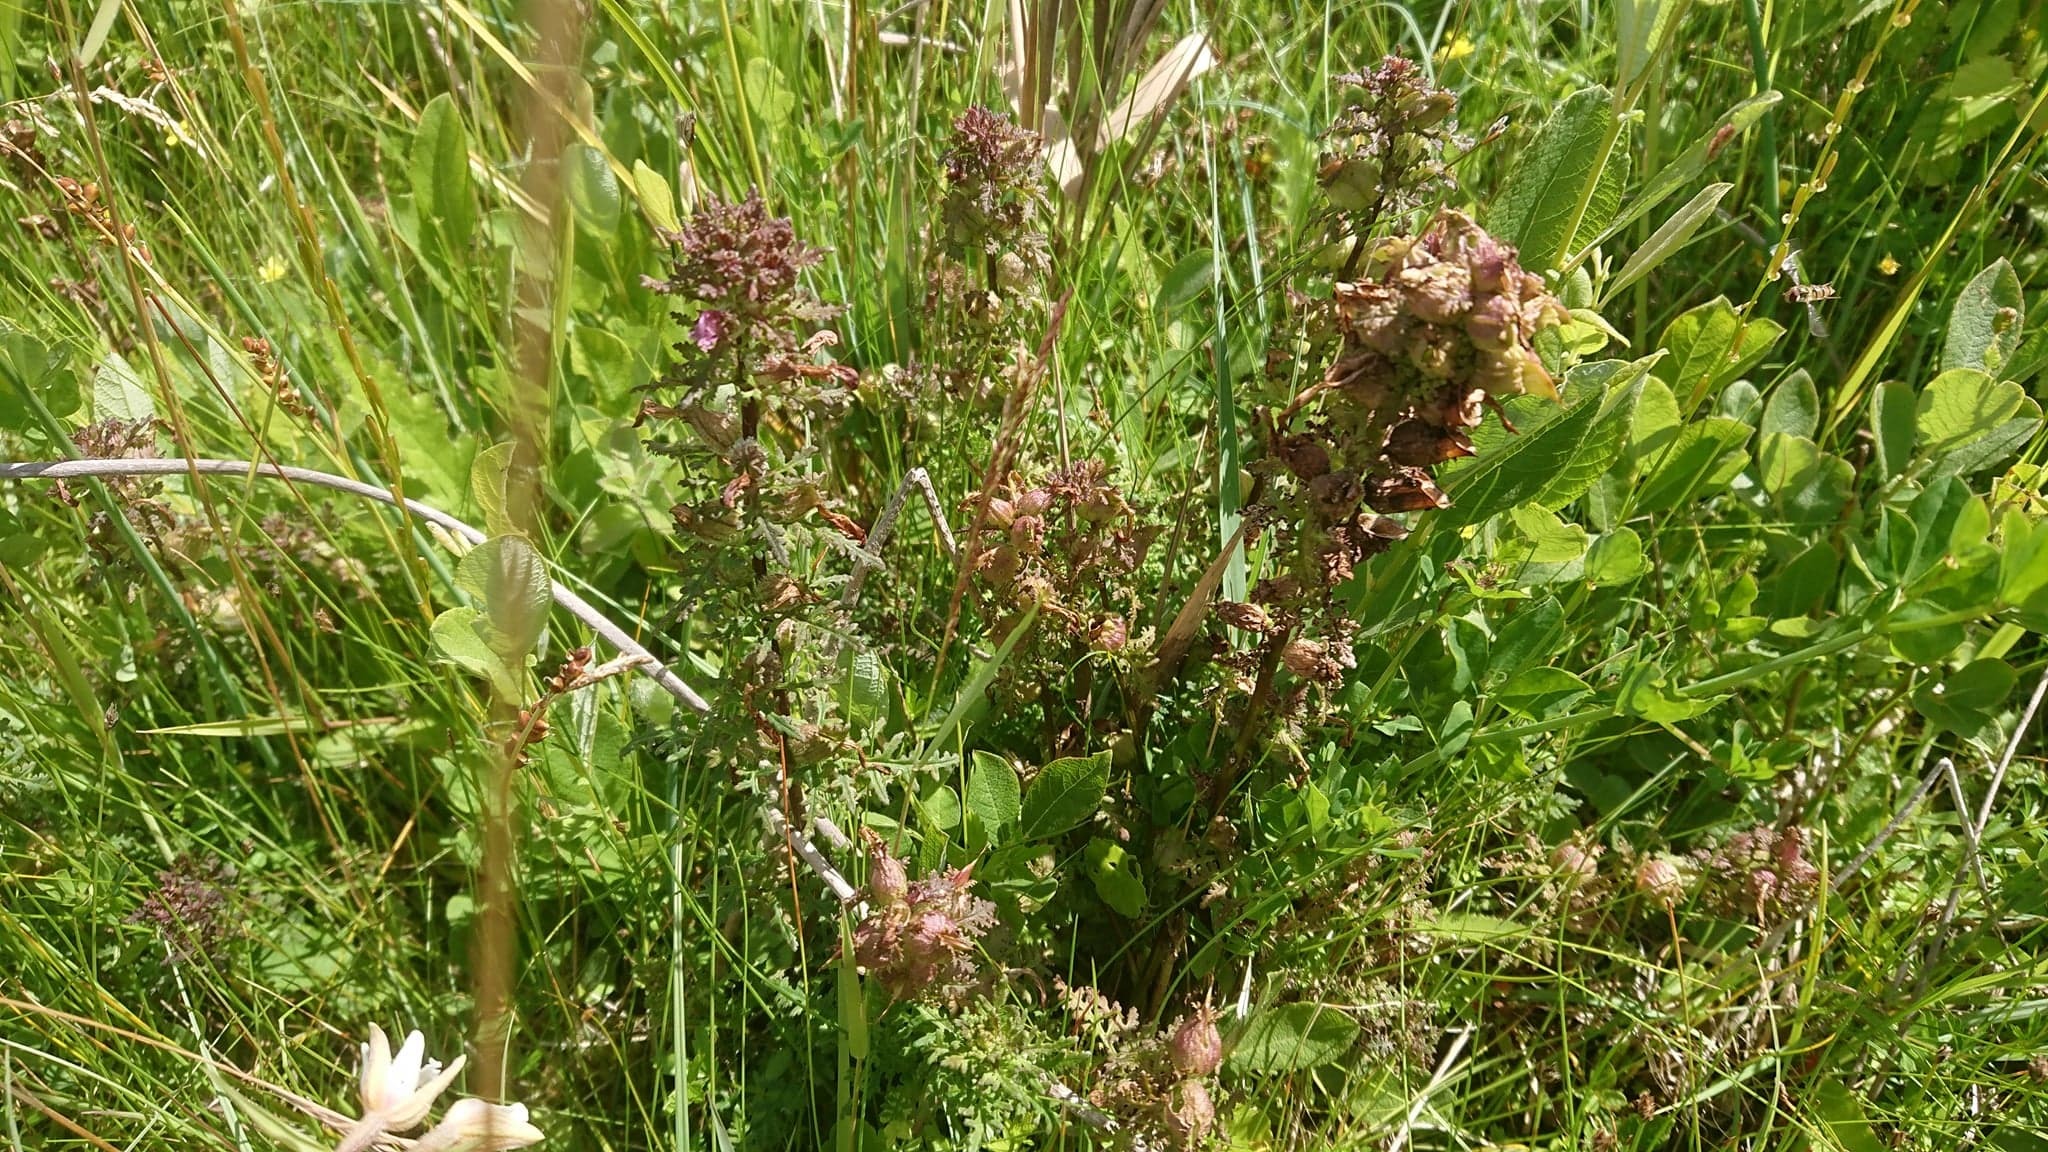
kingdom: Plantae
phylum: Tracheophyta
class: Magnoliopsida
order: Lamiales
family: Orobanchaceae
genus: Pedicularis
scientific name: Pedicularis palustris
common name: Eng-troldurt
